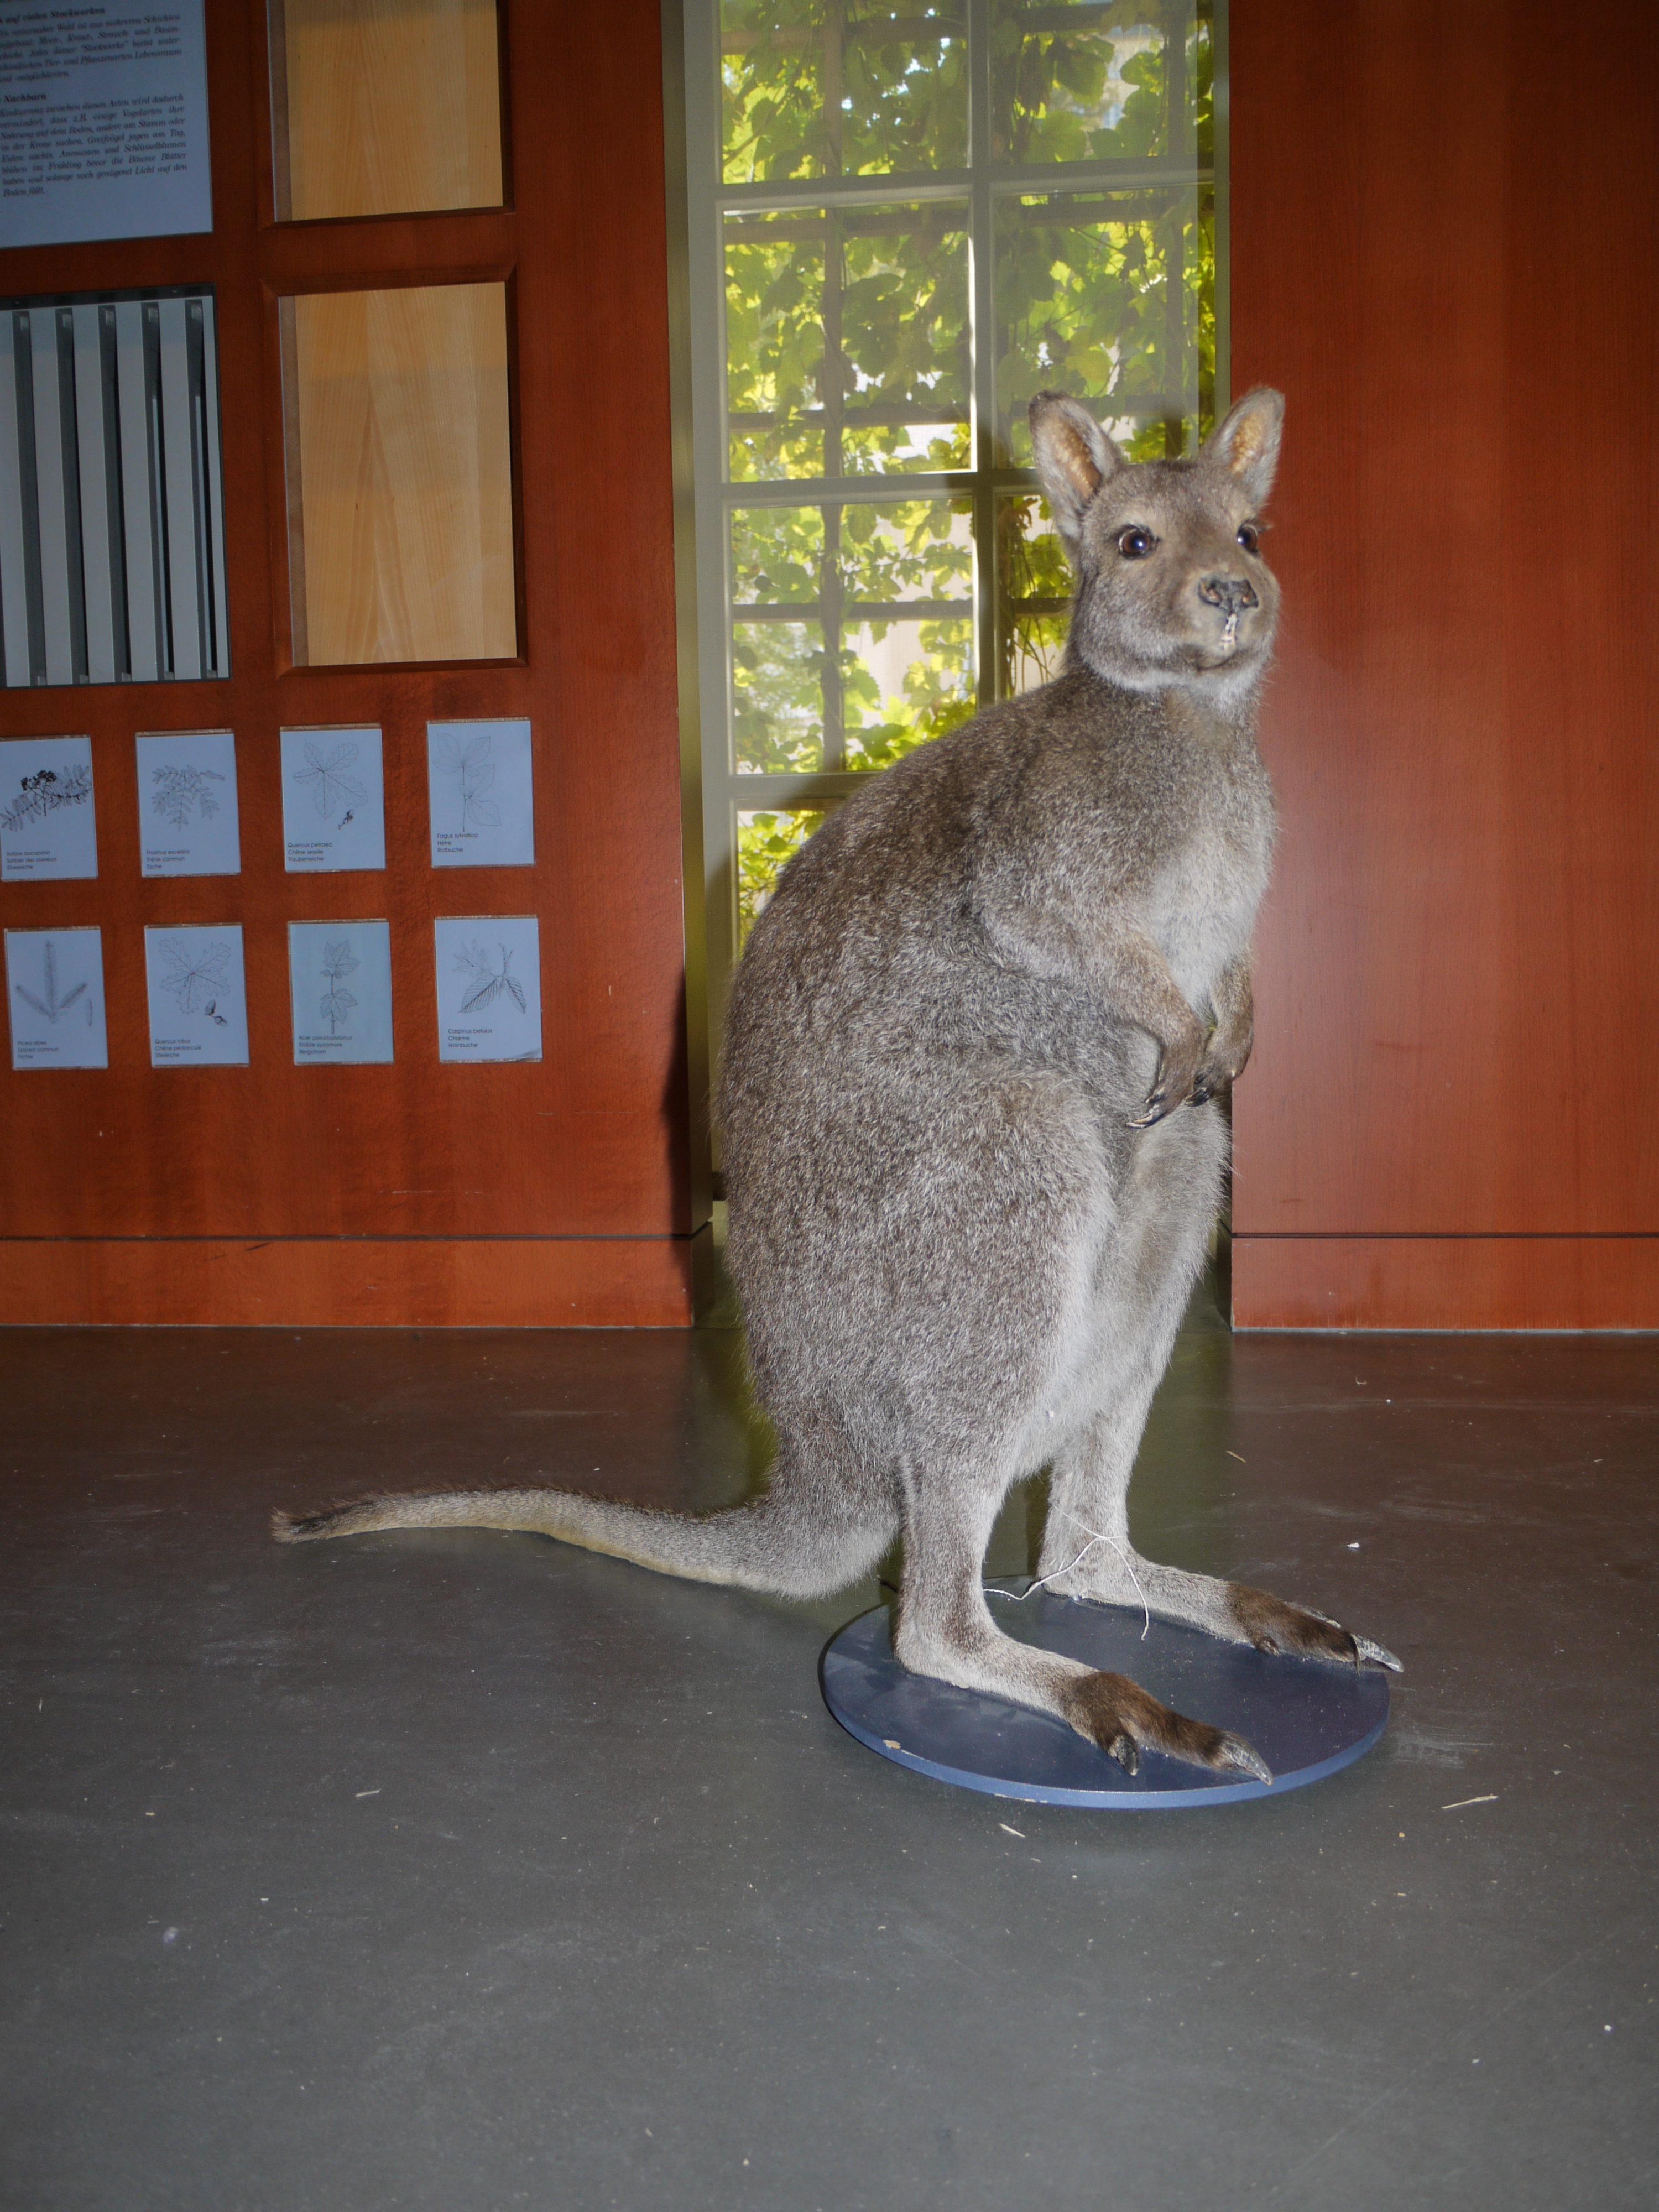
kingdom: Animalia
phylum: Chordata
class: Mammalia
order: Diprotodontia
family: Macropodidae
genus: Macropus
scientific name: Macropus rufogriseus
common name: Red-necked wallaby
